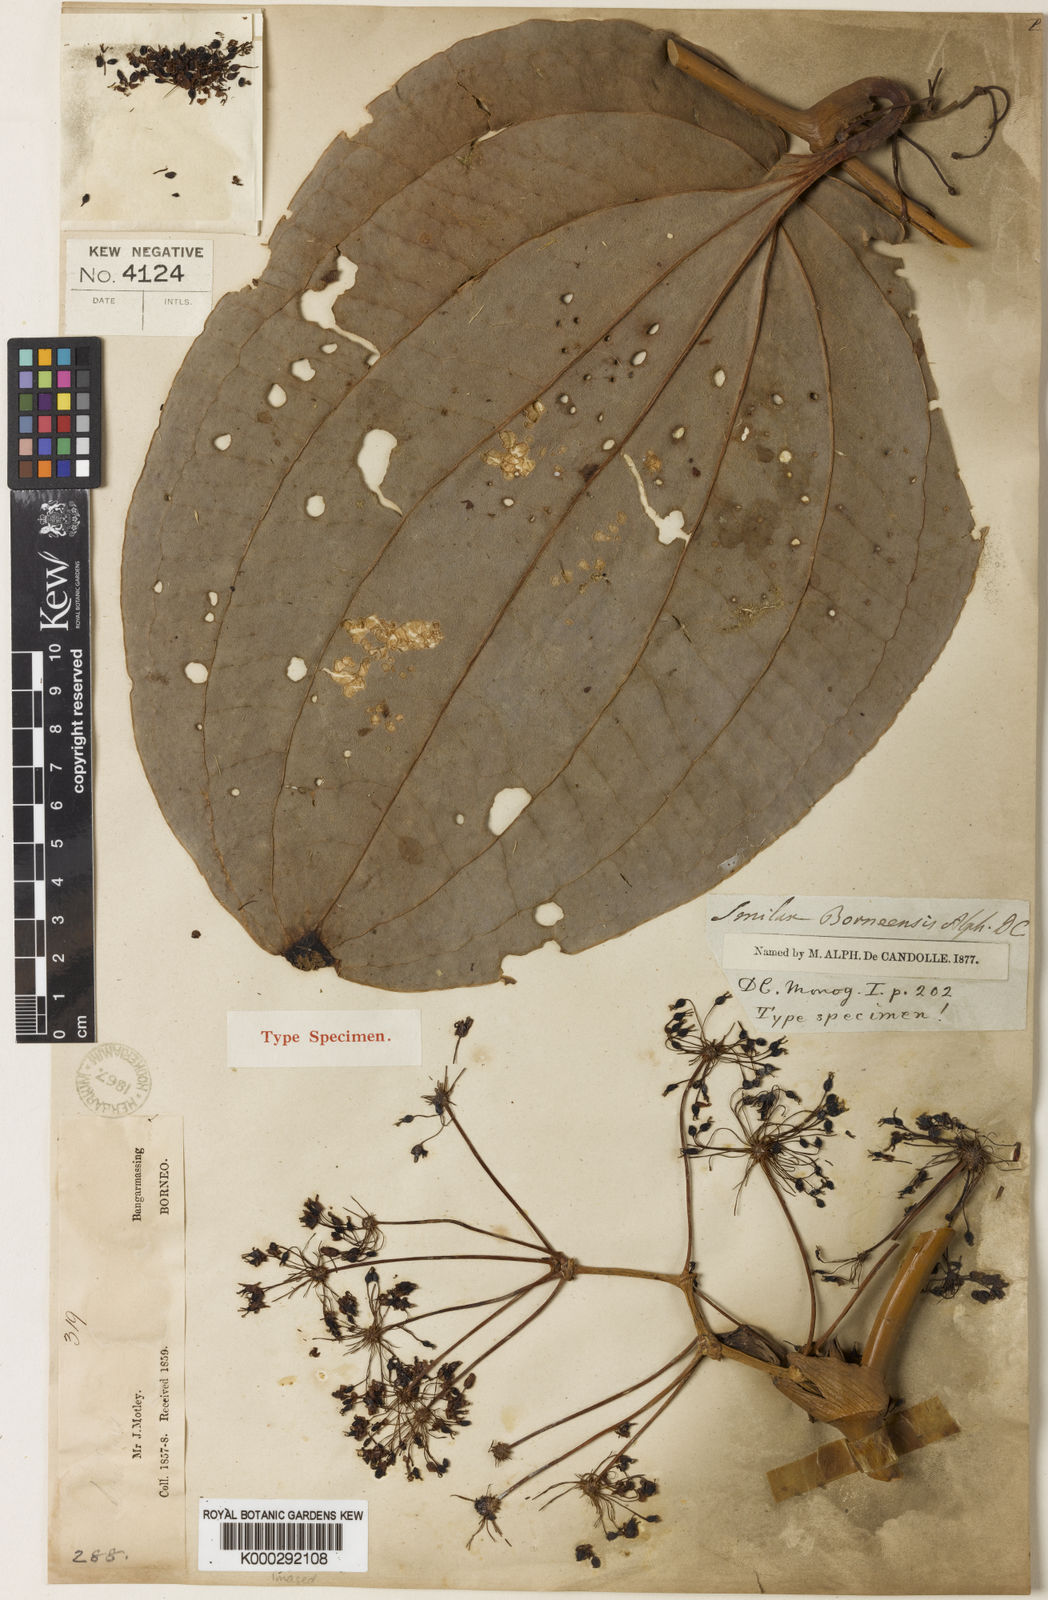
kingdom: Plantae
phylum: Tracheophyta
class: Liliopsida
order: Liliales
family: Smilacaceae
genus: Smilax
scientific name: Smilax borneensis
